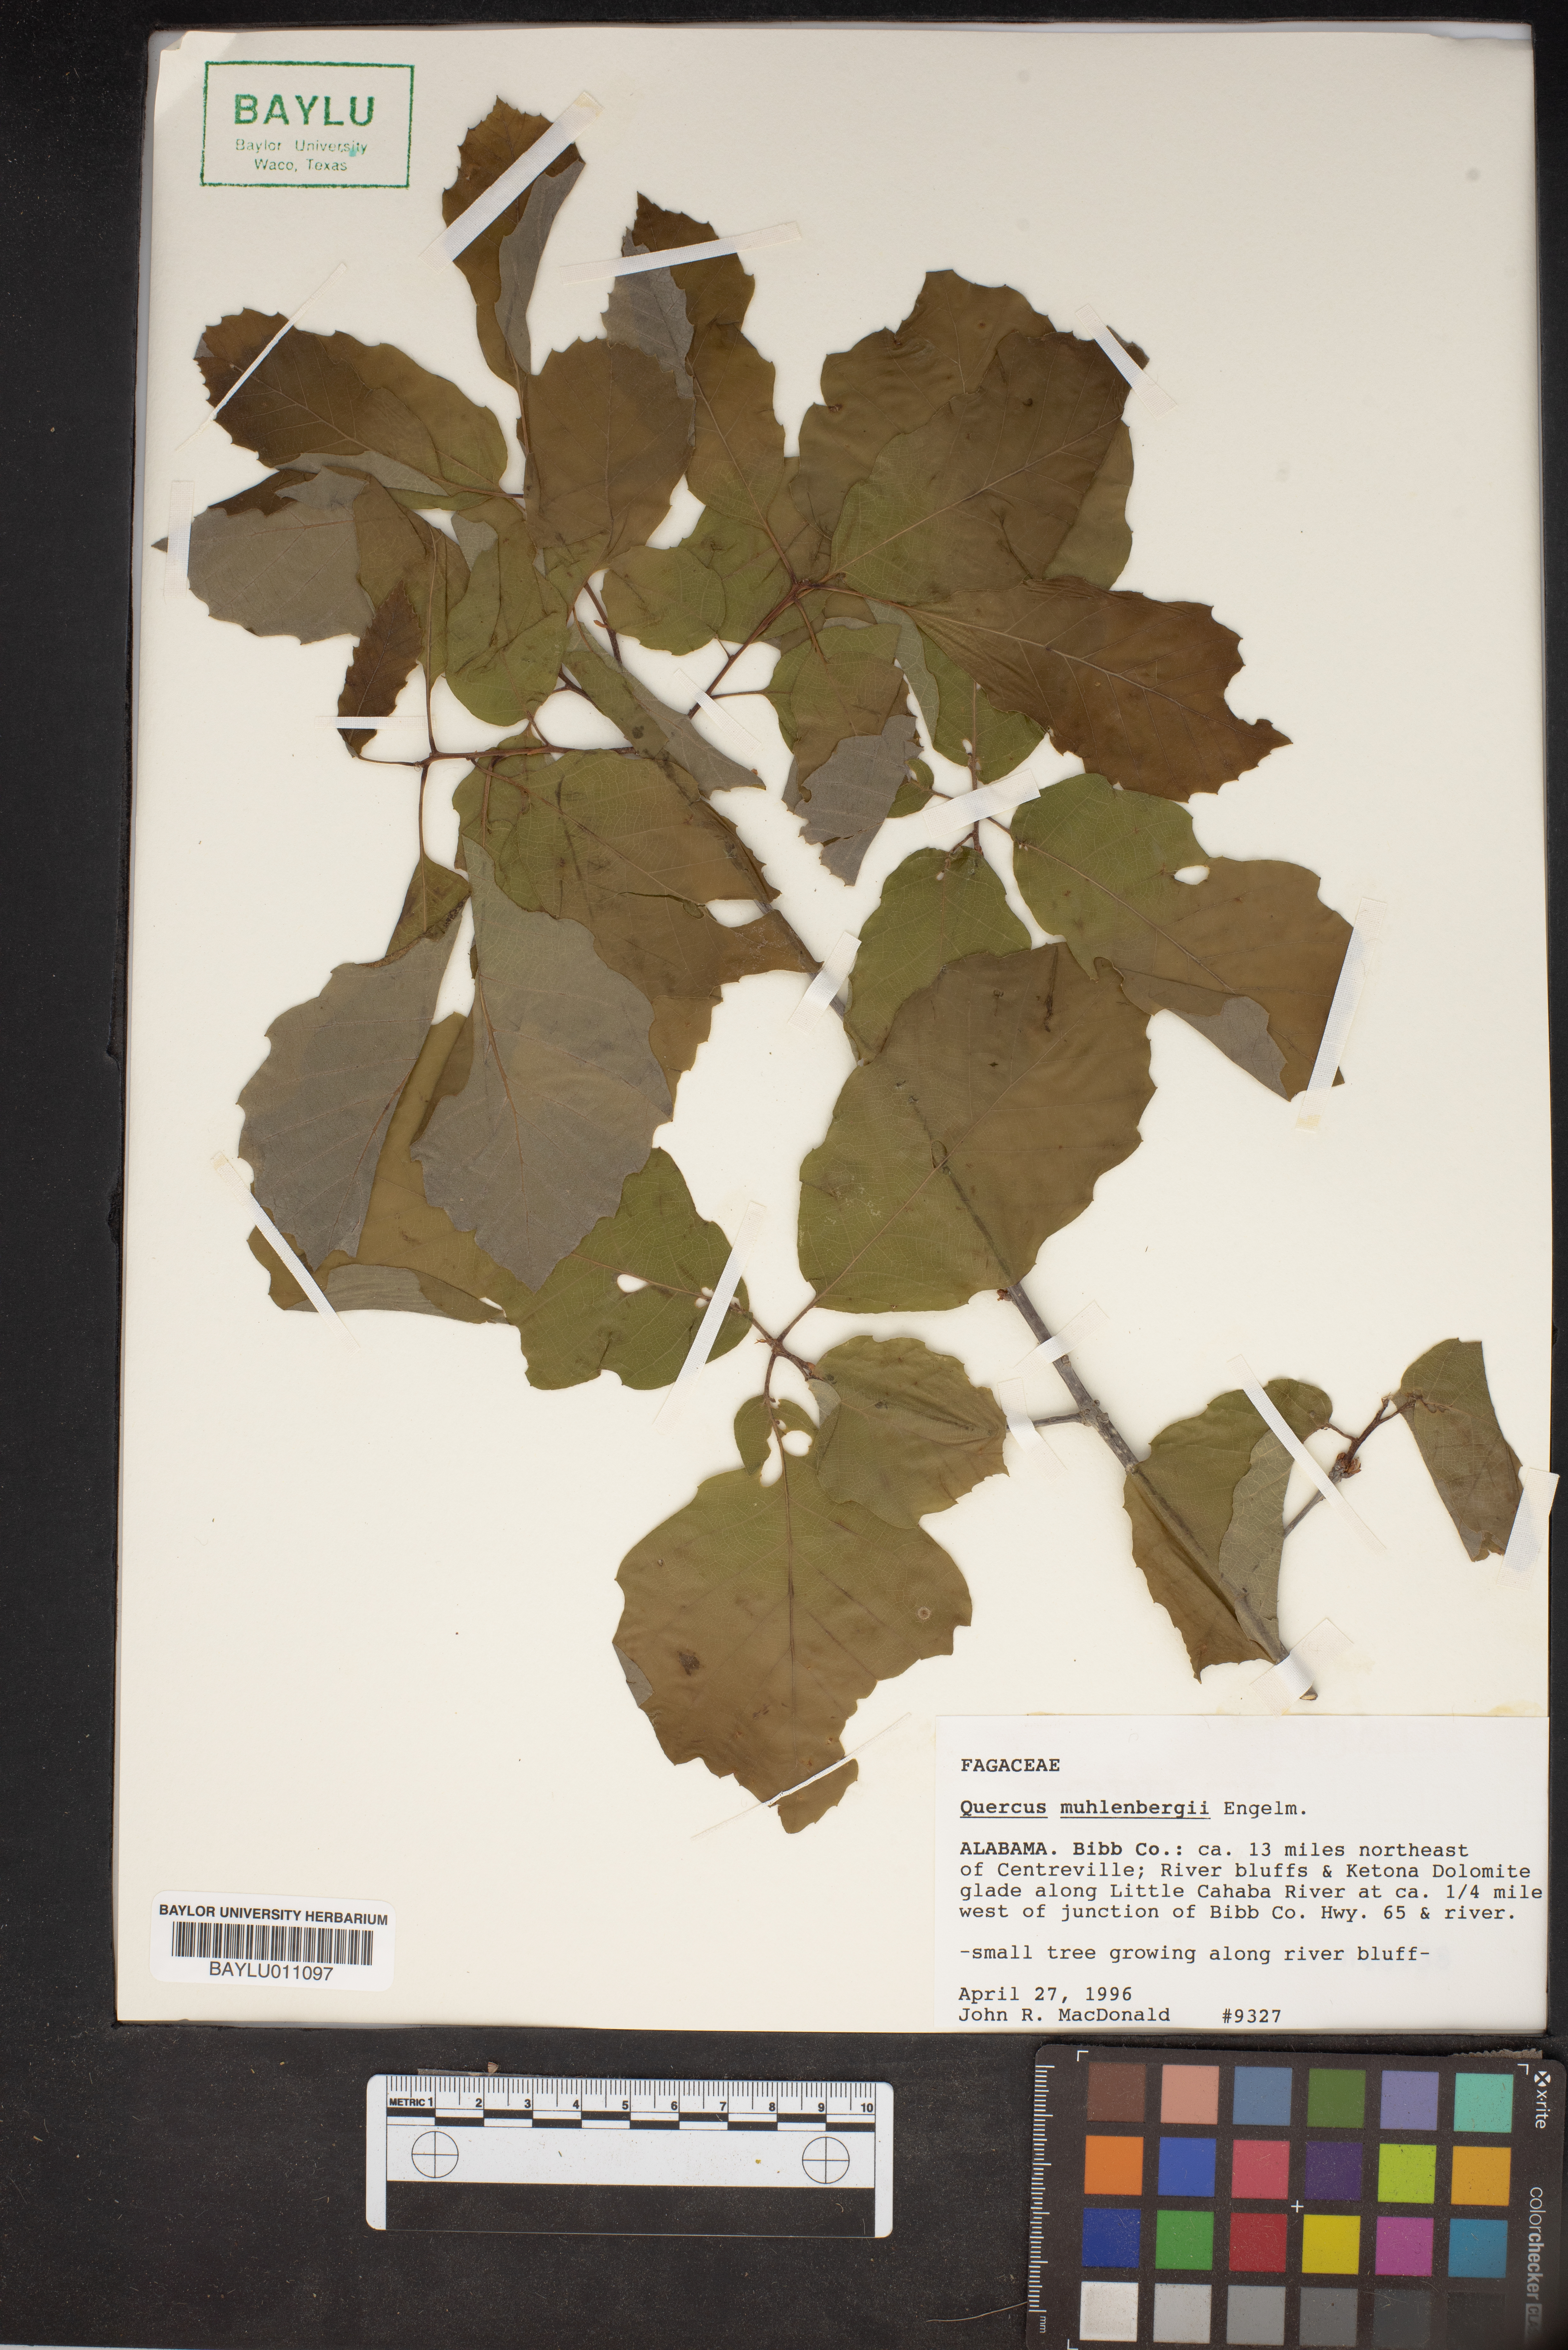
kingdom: Plantae
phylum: Tracheophyta
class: Magnoliopsida
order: Fagales
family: Fagaceae
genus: Quercus
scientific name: Quercus muehlenbergii
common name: Chinkapin oak
